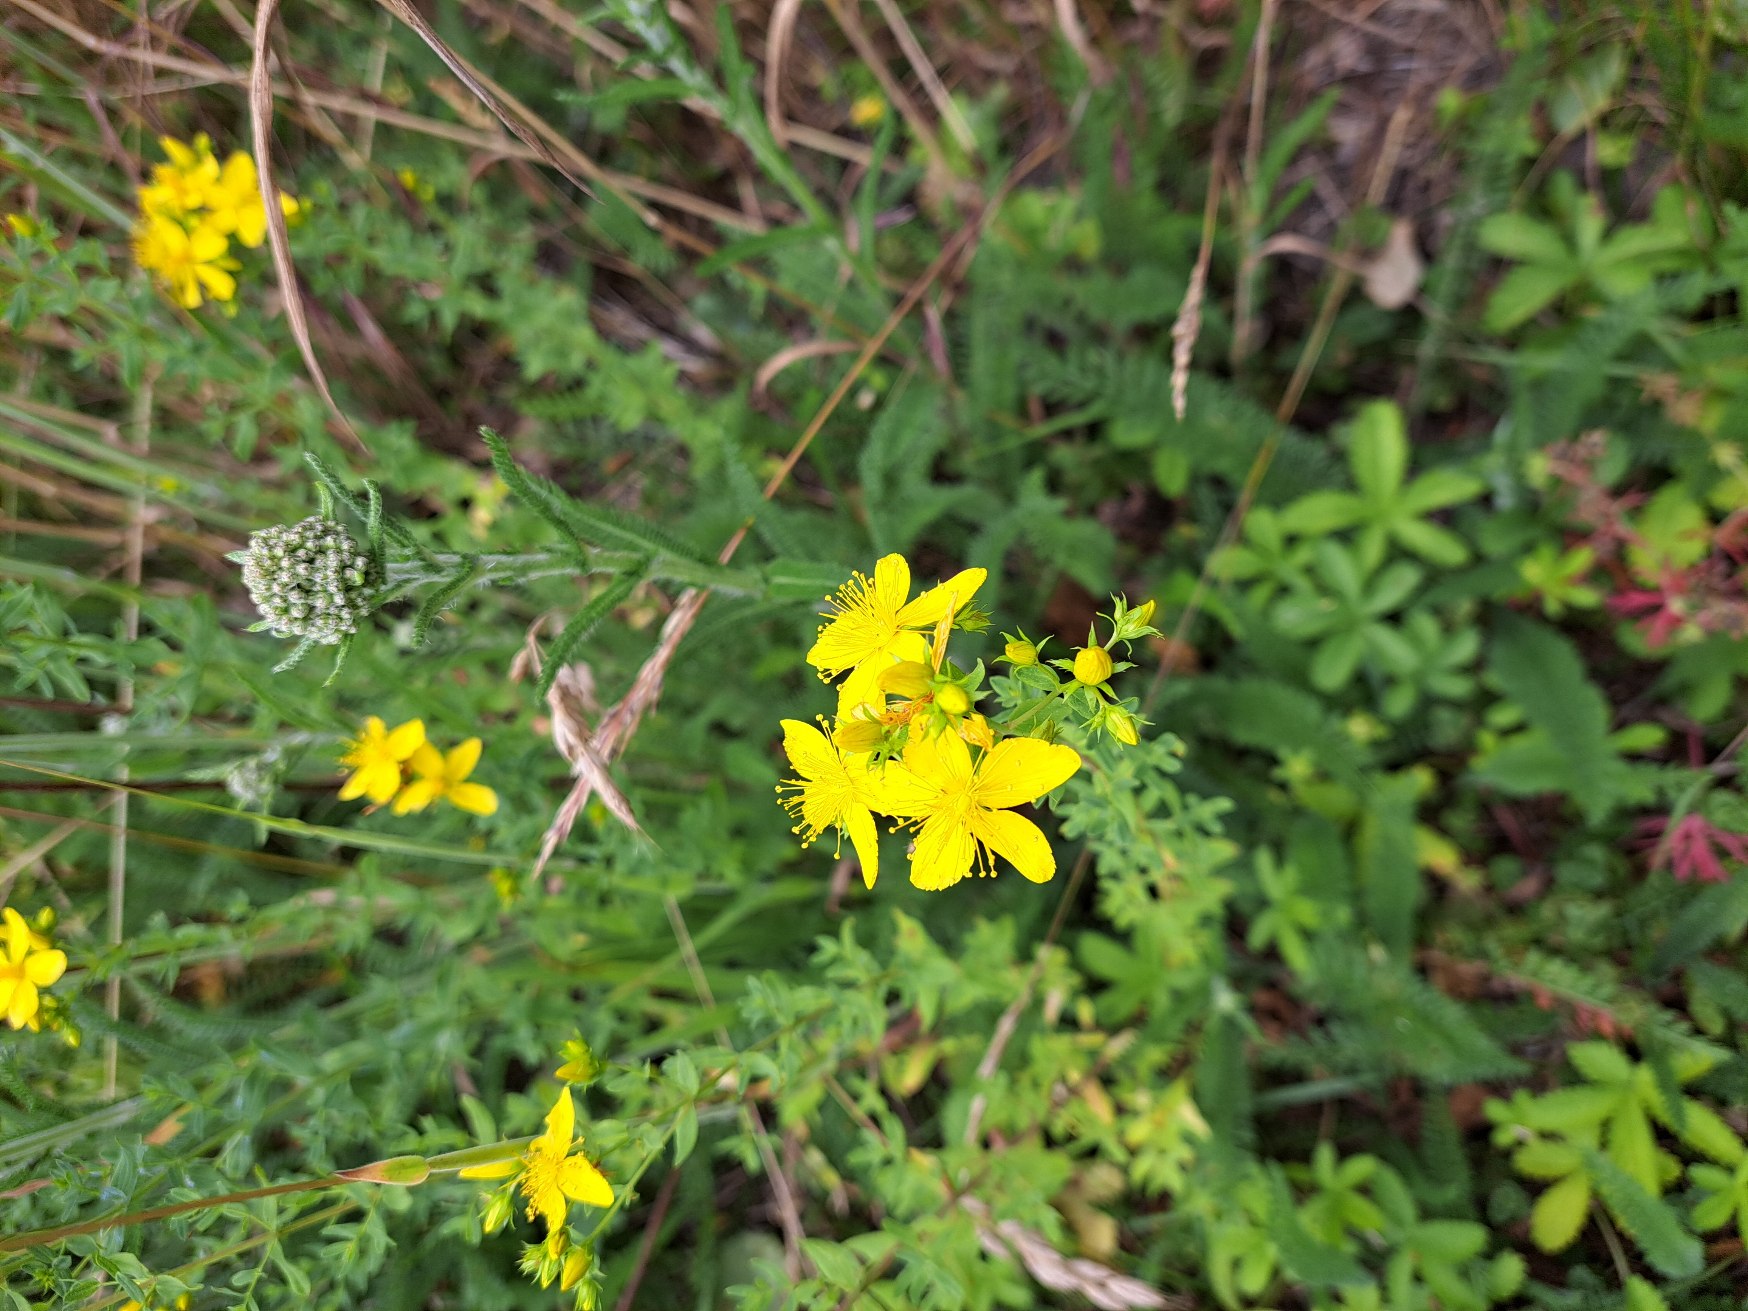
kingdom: Plantae
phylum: Tracheophyta
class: Magnoliopsida
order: Malpighiales
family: Hypericaceae
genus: Hypericum
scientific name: Hypericum perforatum
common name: Prikbladet perikon
